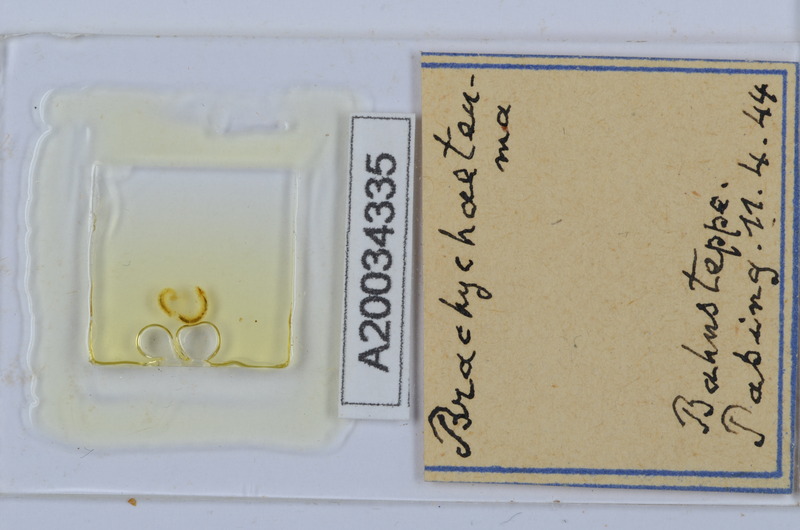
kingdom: Animalia
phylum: Arthropoda
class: Diplopoda
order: Chordeumatida
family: Brachychaeteumatidae
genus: Brachychaeteuma
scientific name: Brachychaeteuma
